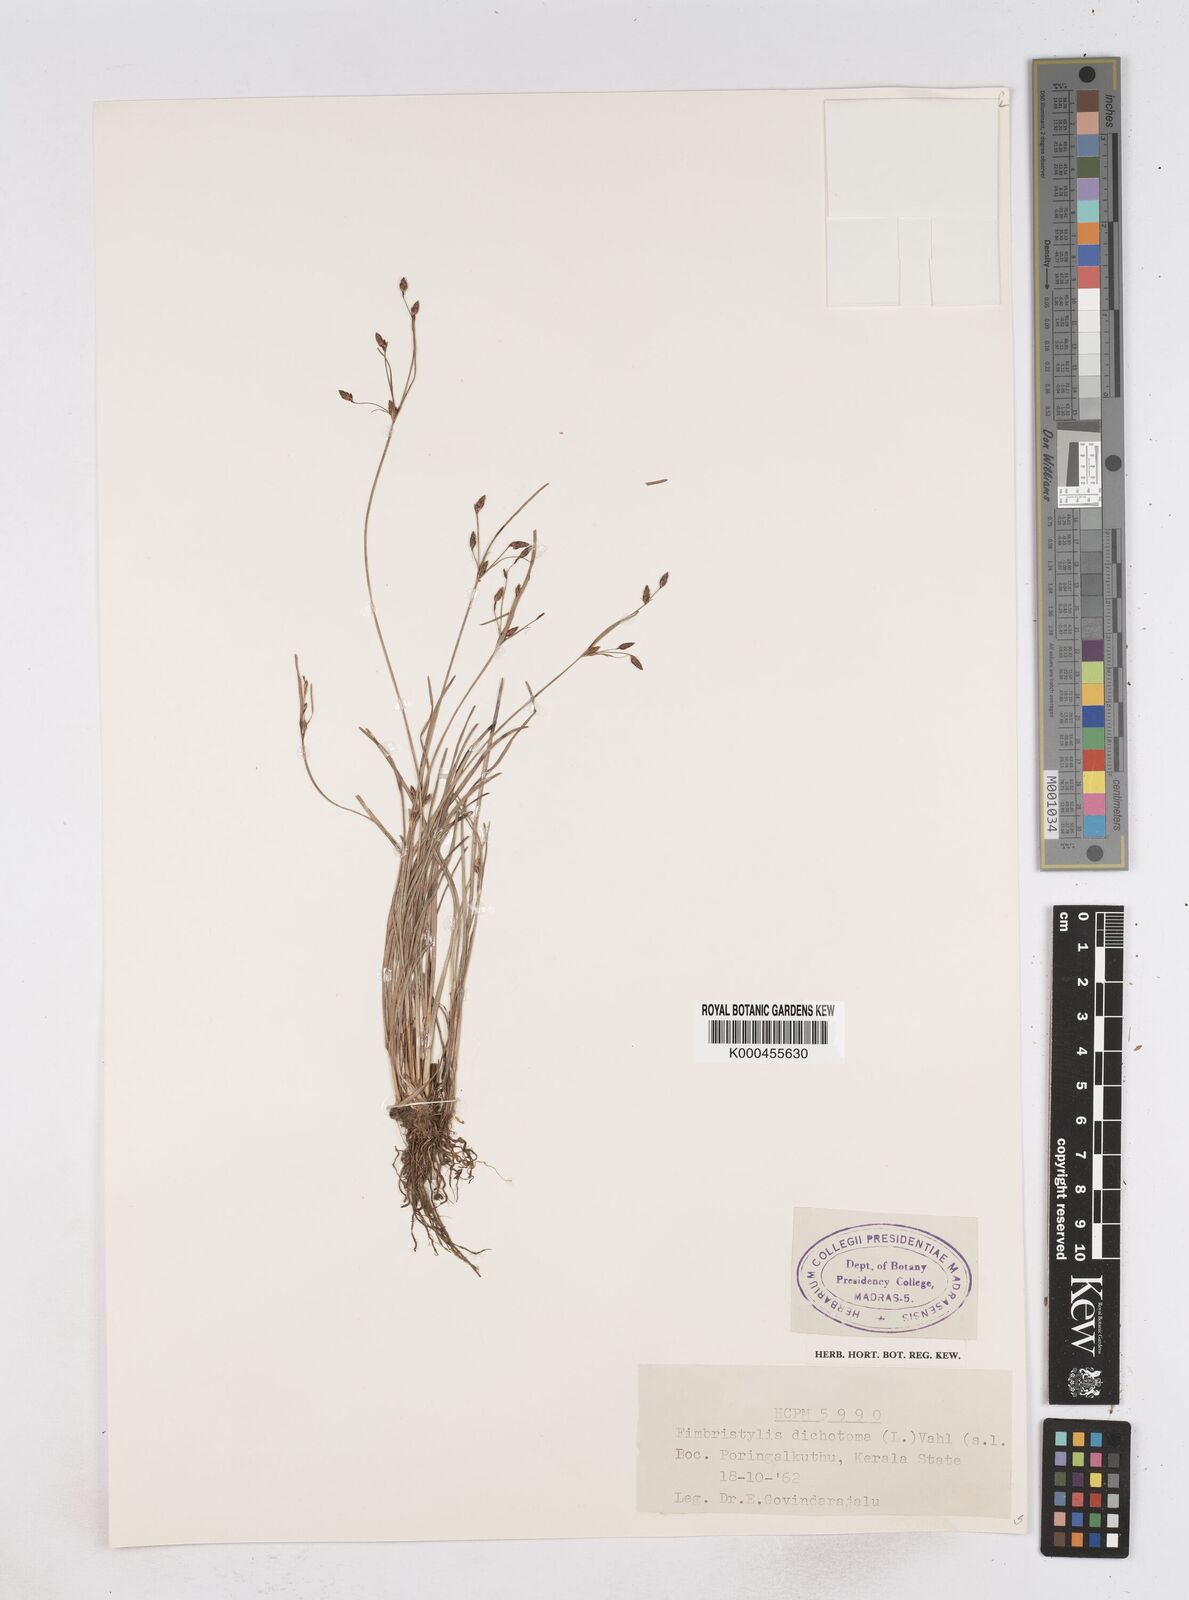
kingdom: Plantae
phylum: Tracheophyta
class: Liliopsida
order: Poales
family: Cyperaceae
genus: Fimbristylis
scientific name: Fimbristylis dichotoma
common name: Forked fimbry
